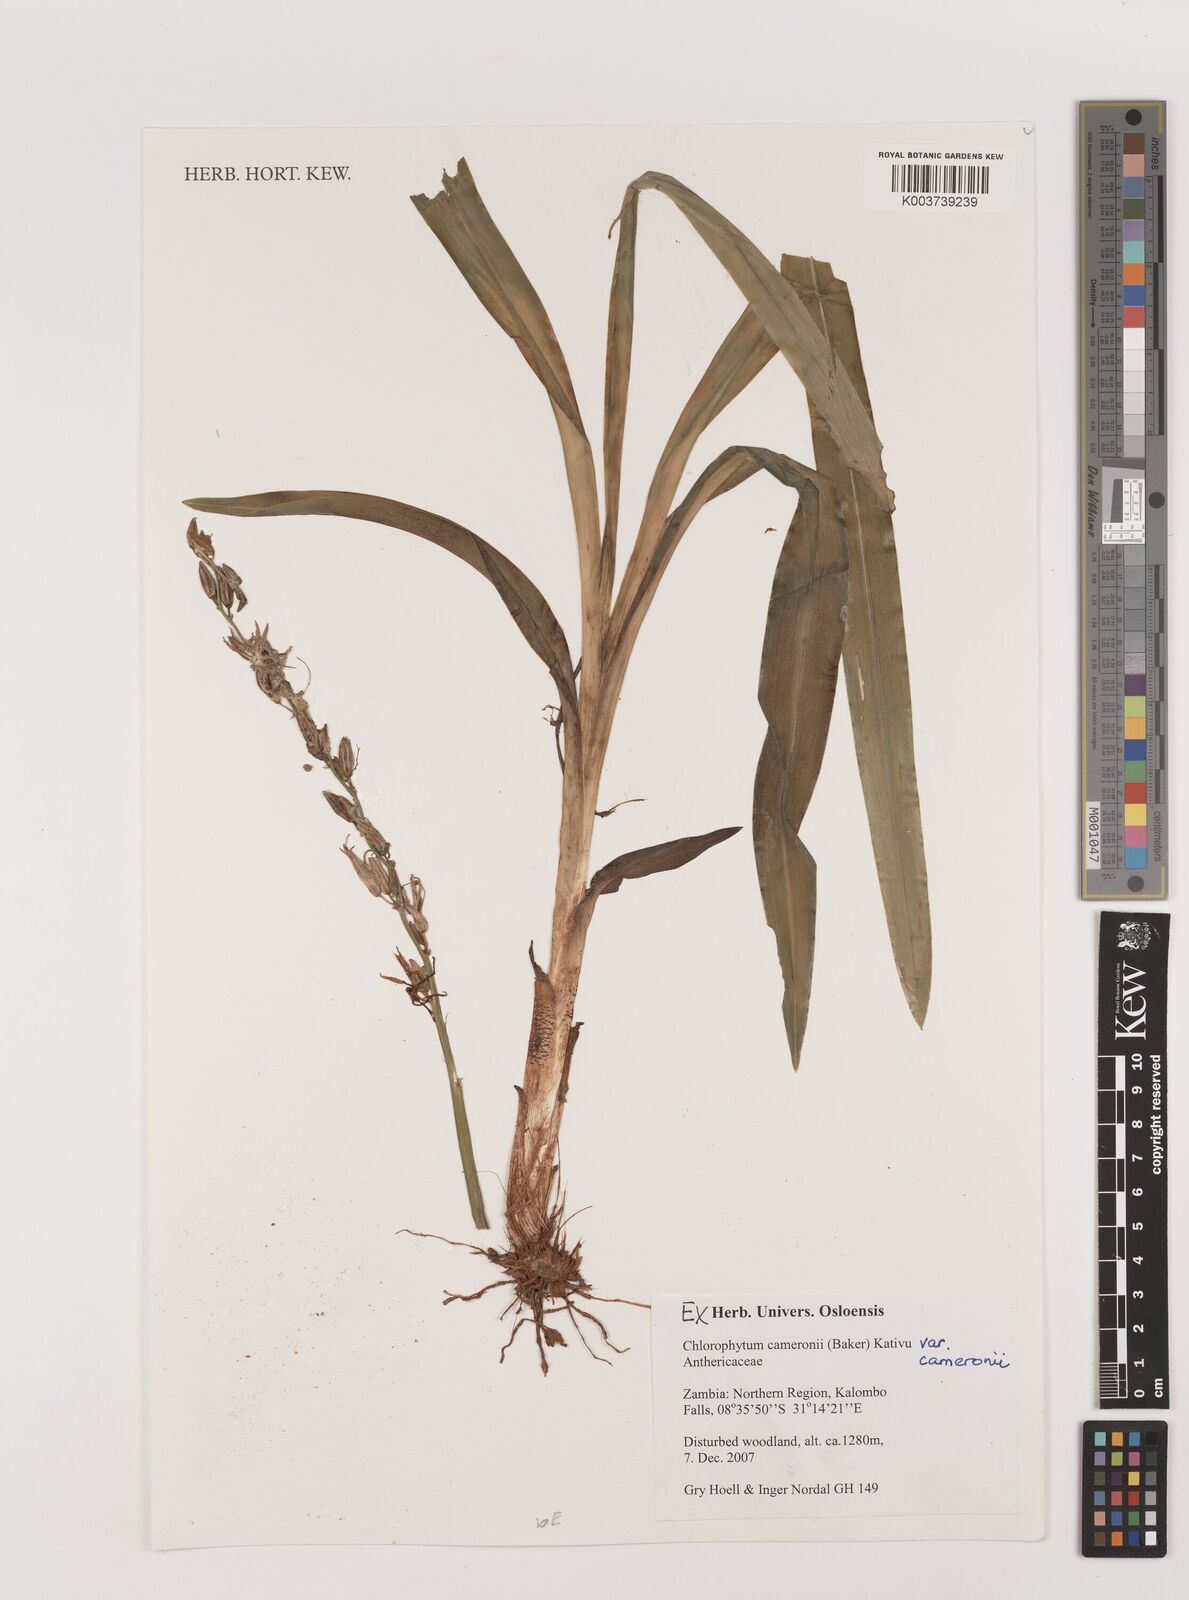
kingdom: Plantae
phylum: Tracheophyta
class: Liliopsida
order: Asparagales
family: Asparagaceae
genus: Chlorophytum
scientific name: Chlorophytum cameronii
